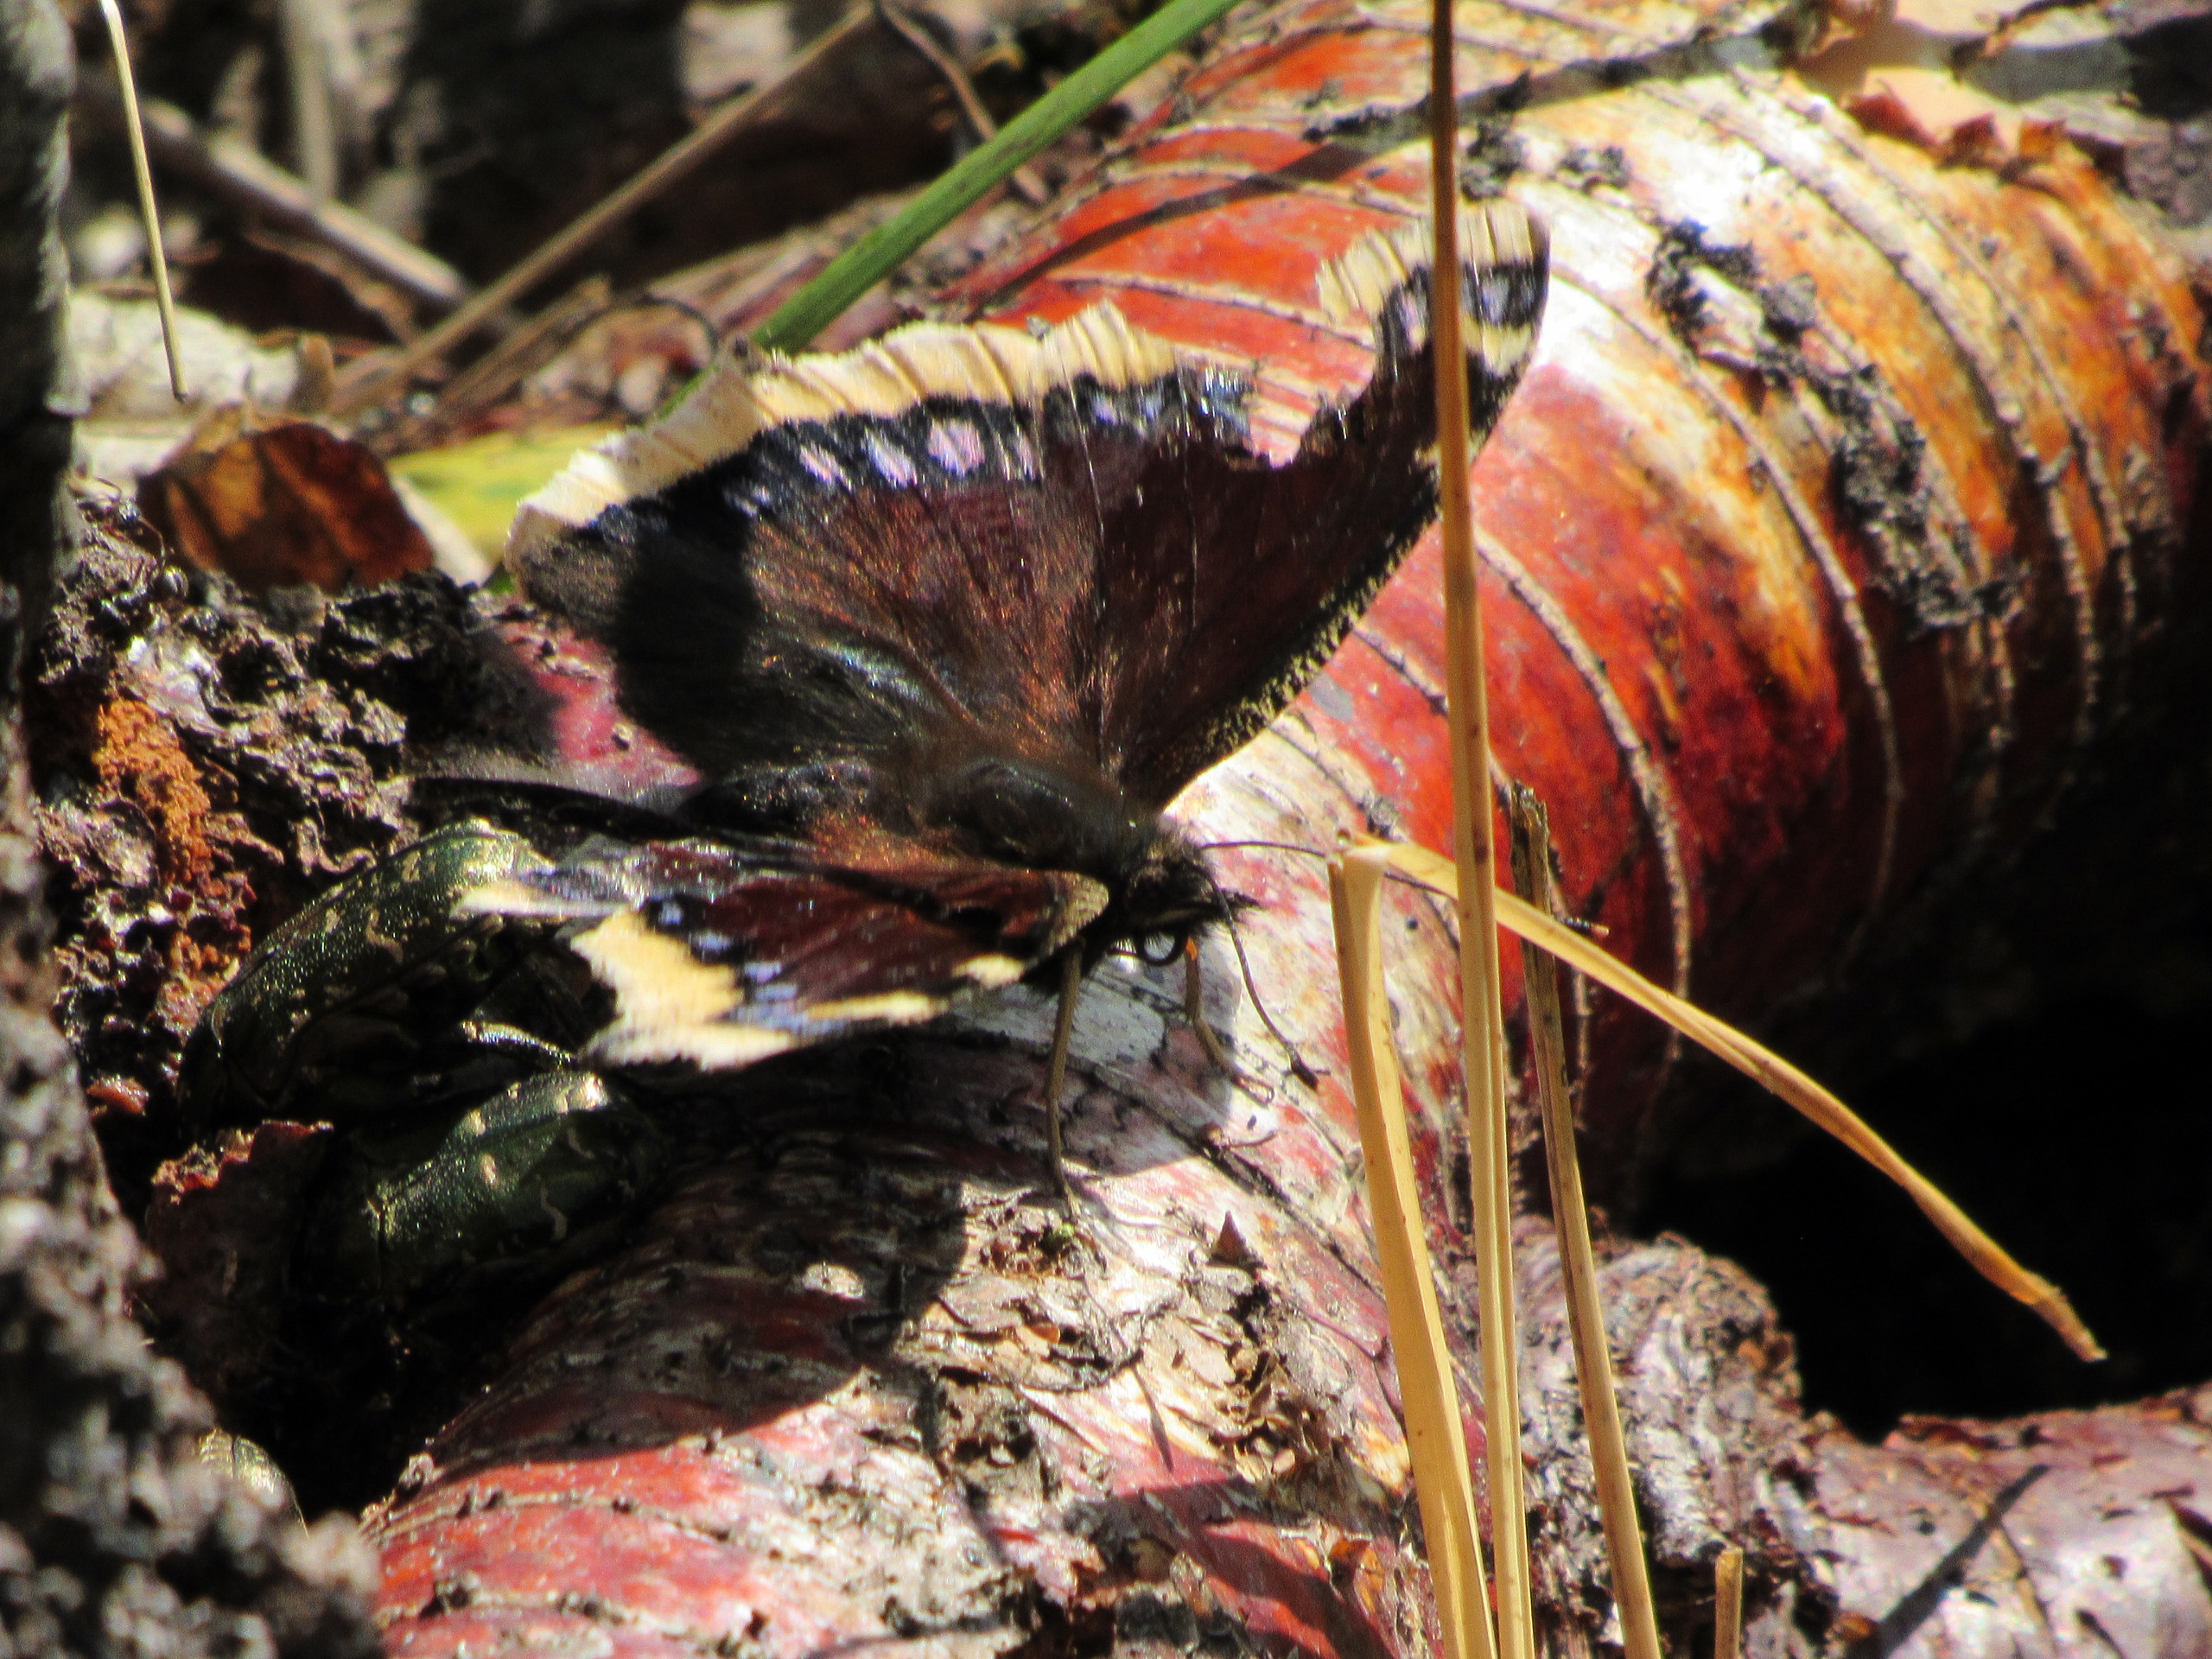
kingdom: Animalia
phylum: Arthropoda
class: Insecta
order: Lepidoptera
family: Nymphalidae
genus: Nymphalis
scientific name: Nymphalis antiopa
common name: Sørgekåbe
